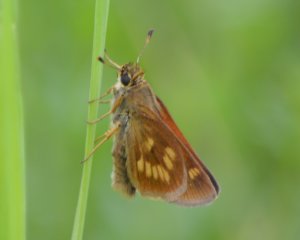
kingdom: Animalia
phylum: Arthropoda
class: Insecta
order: Lepidoptera
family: Hesperiidae
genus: Polites
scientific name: Polites
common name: Long Dash Skipper
